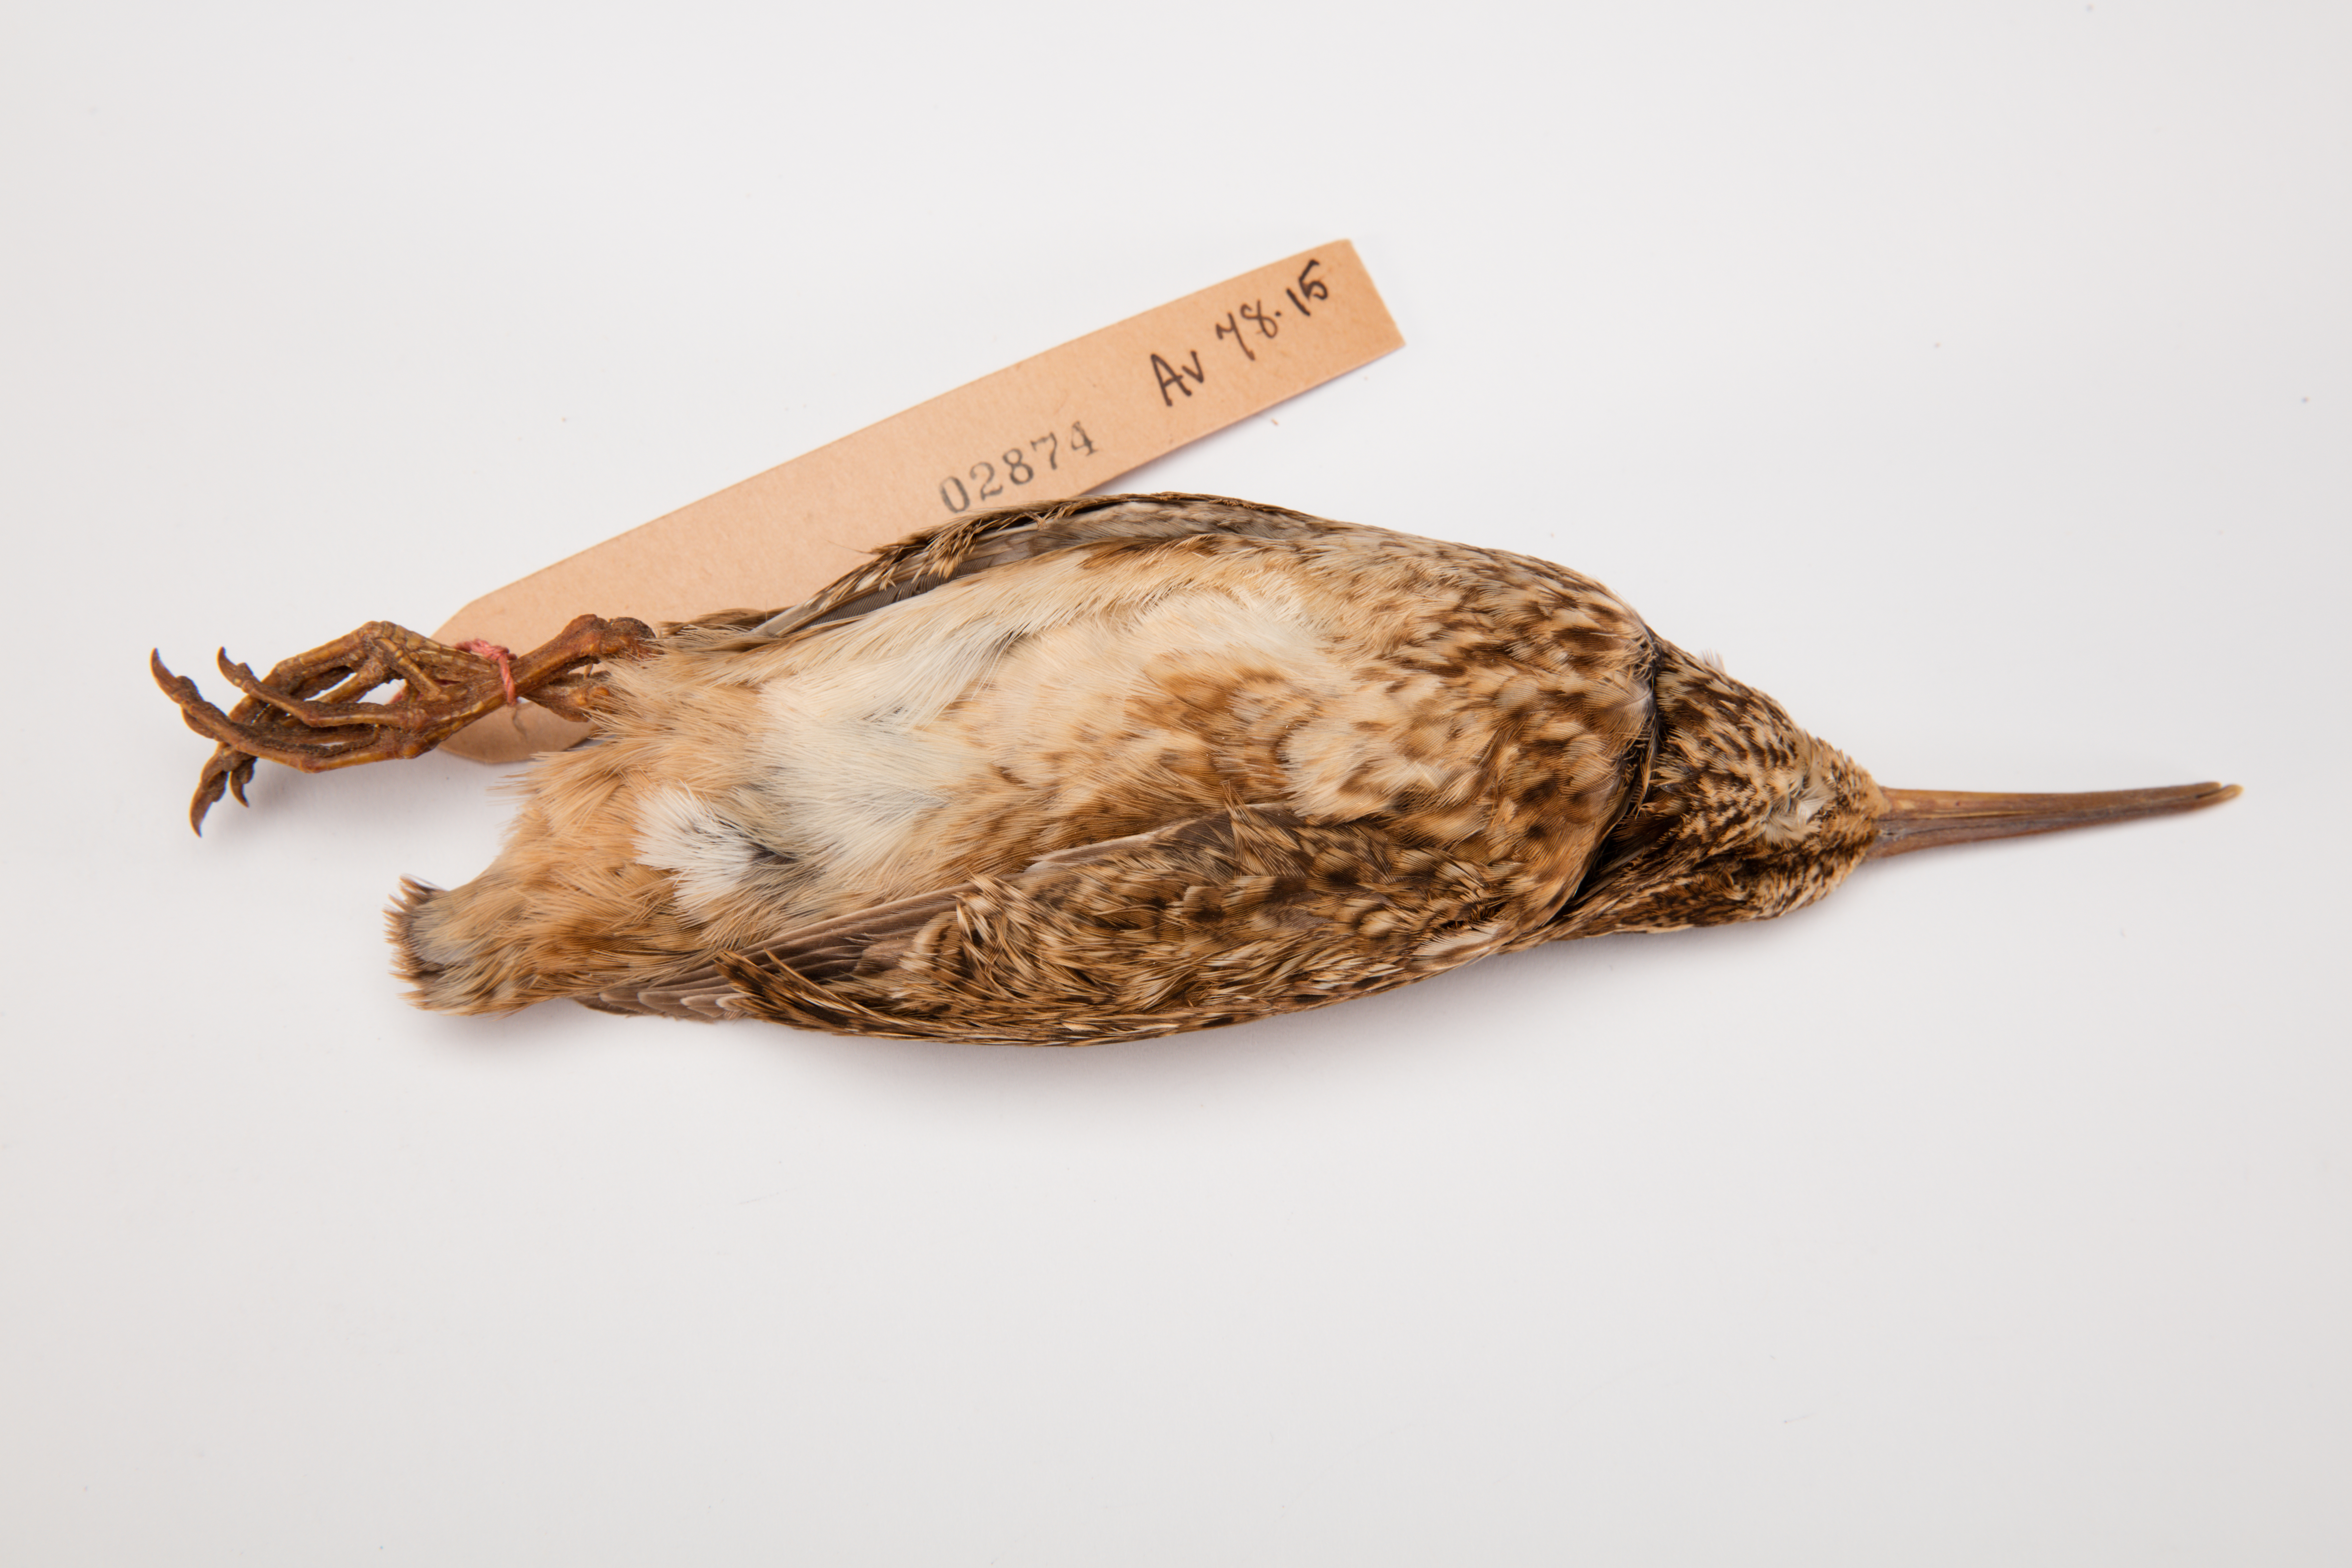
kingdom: Animalia
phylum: Chordata
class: Aves
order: Charadriiformes
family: Scolopacidae
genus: Coenocorypha
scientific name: Coenocorypha pusilla
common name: Chatham snipe
